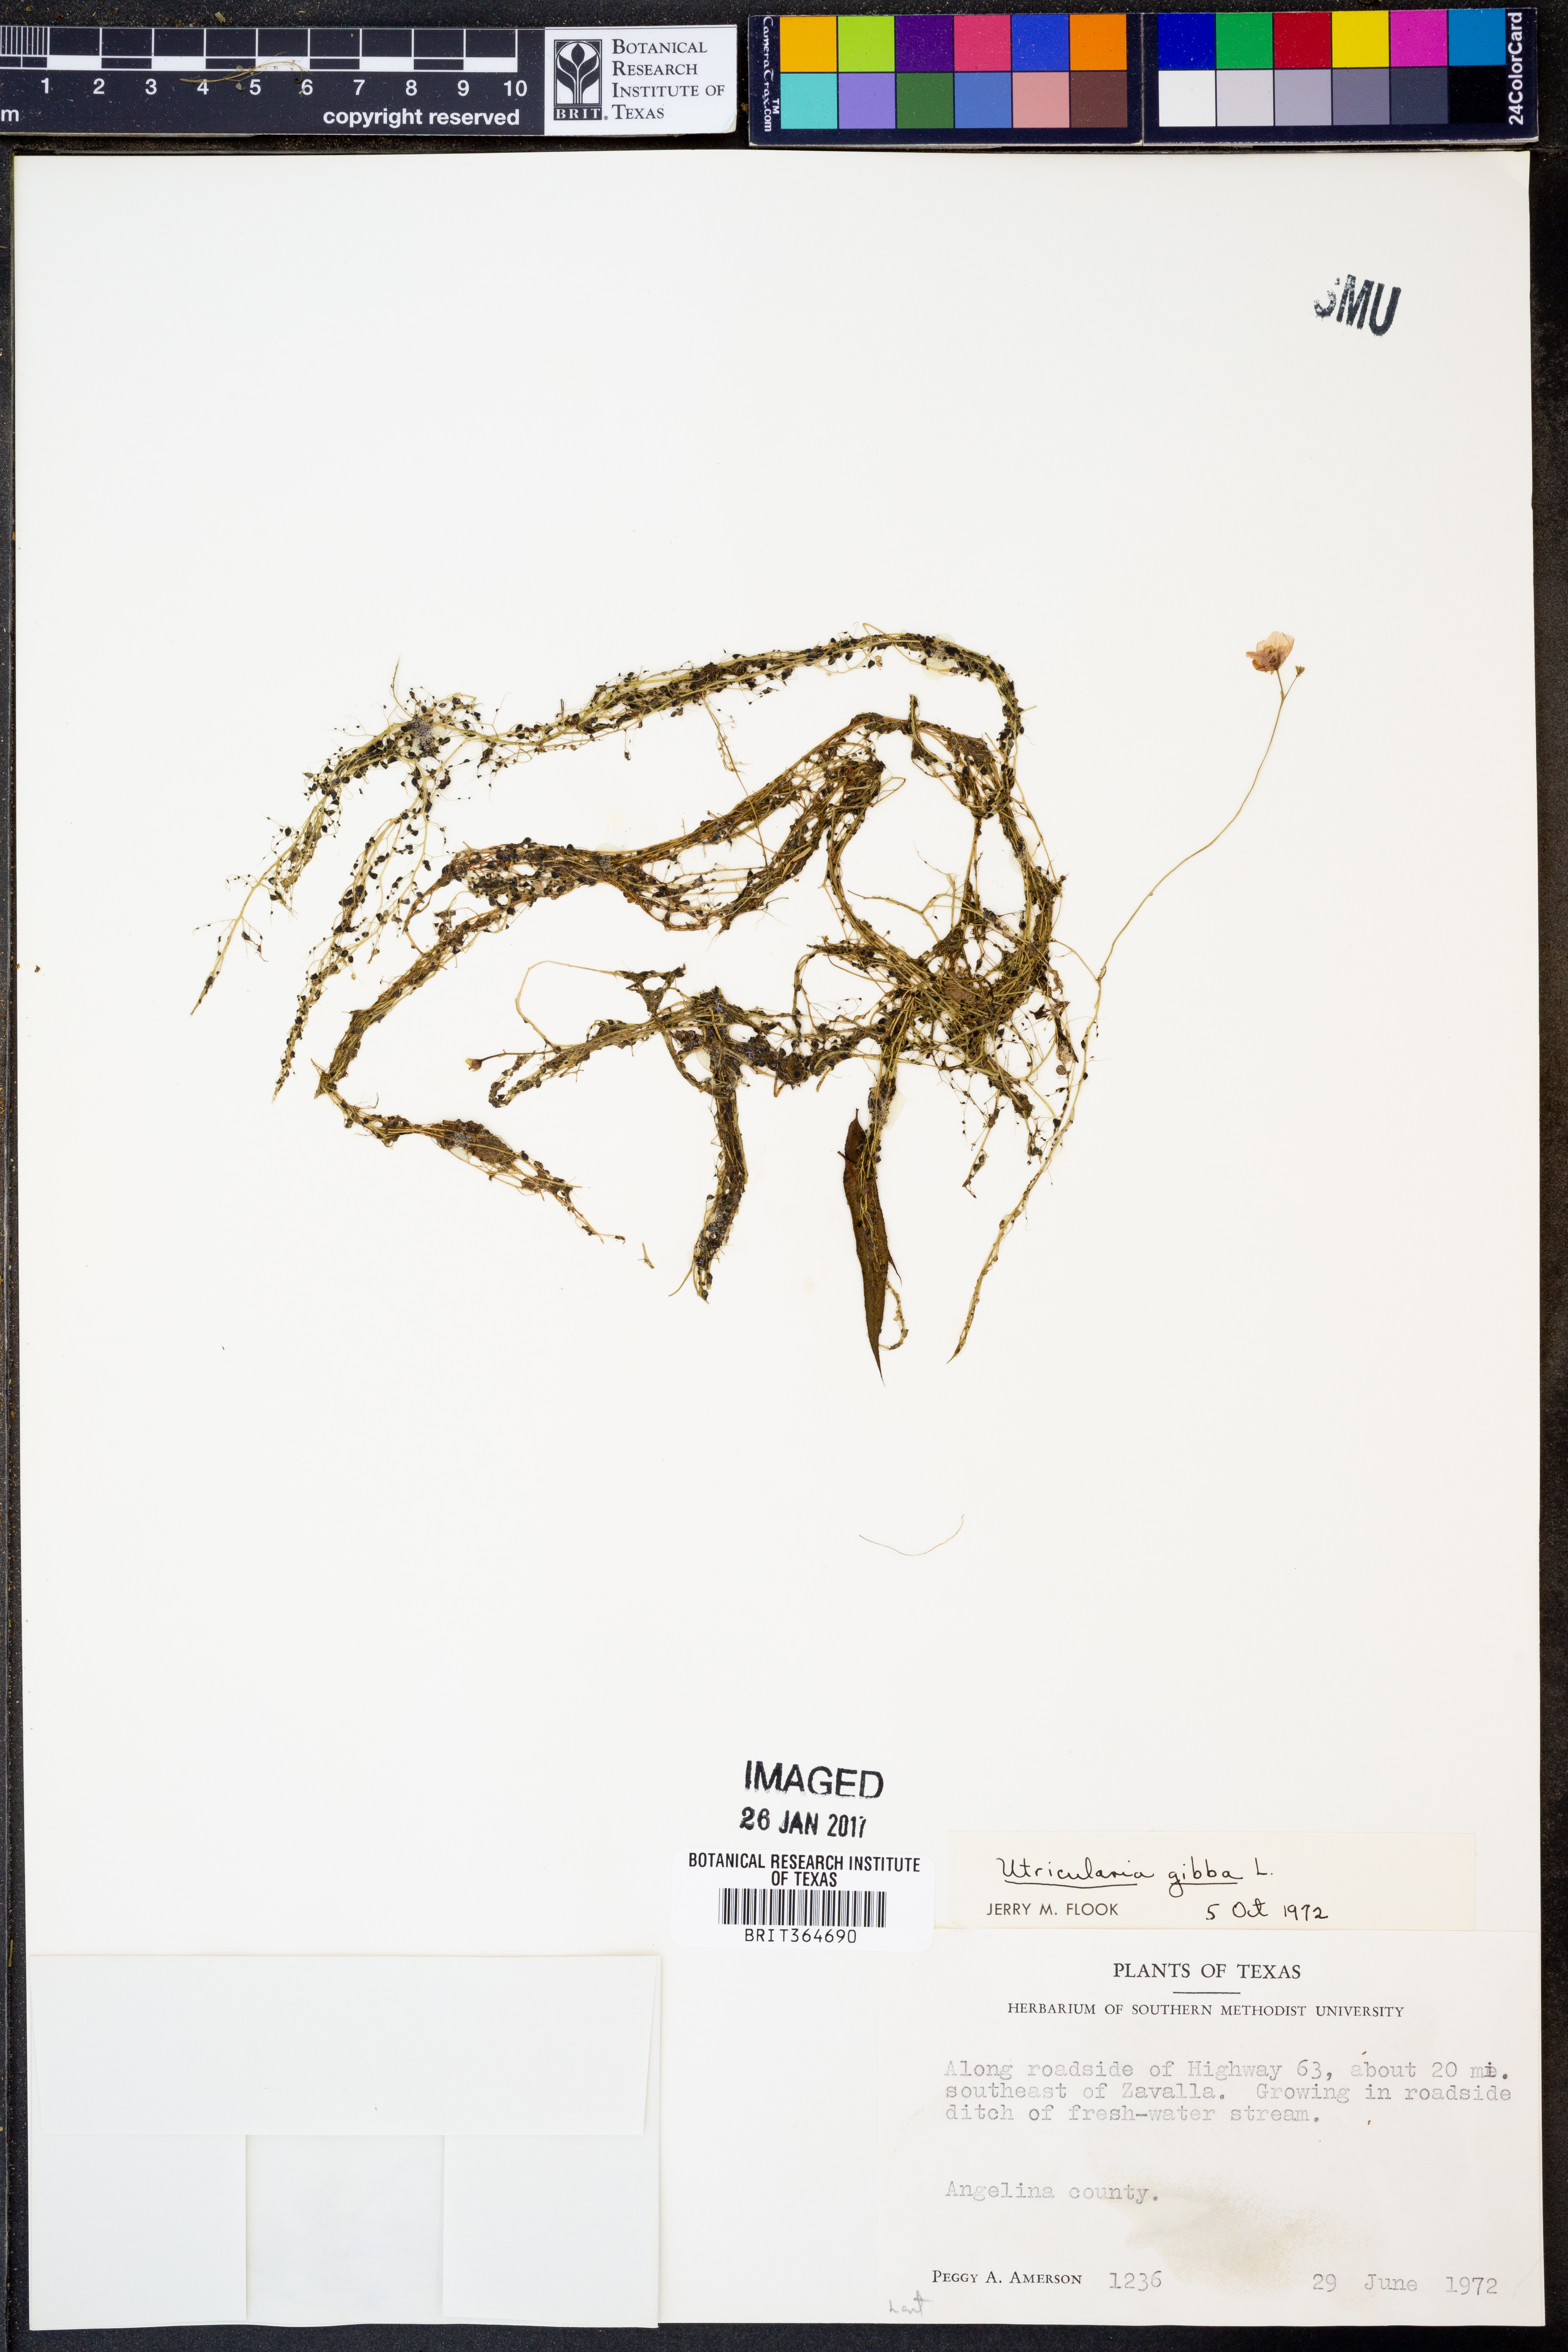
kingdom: Plantae
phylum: Tracheophyta
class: Magnoliopsida
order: Lamiales
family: Lentibulariaceae
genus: Utricularia
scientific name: Utricularia gibba
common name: Humped bladderwort
